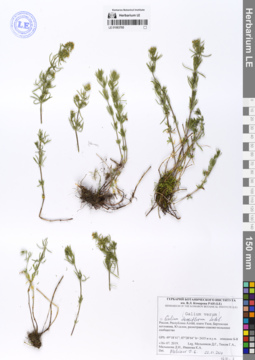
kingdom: Plantae
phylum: Tracheophyta
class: Magnoliopsida
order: Gentianales
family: Rubiaceae
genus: Galium
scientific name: Galium densiflorum
